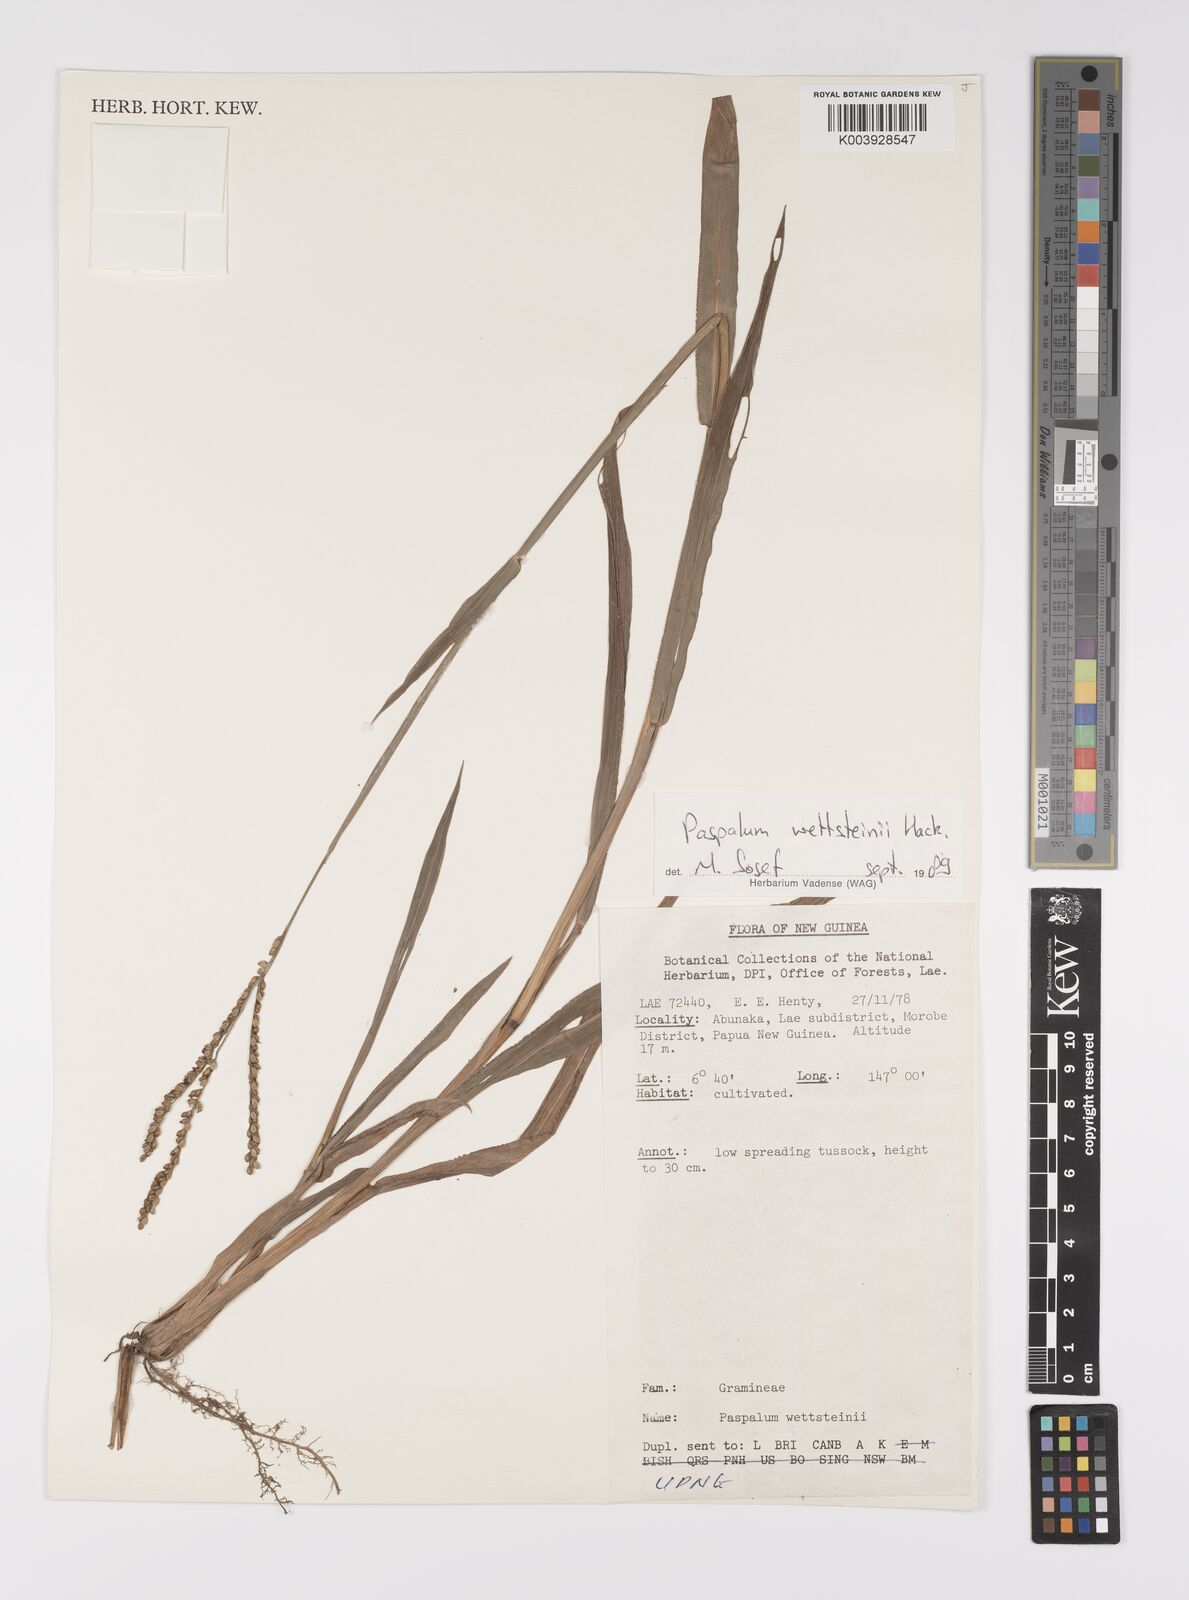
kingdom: Plantae
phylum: Tracheophyta
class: Liliopsida
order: Poales
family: Poaceae
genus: Paspalum
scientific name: Paspalum virgatum
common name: Talquezal
